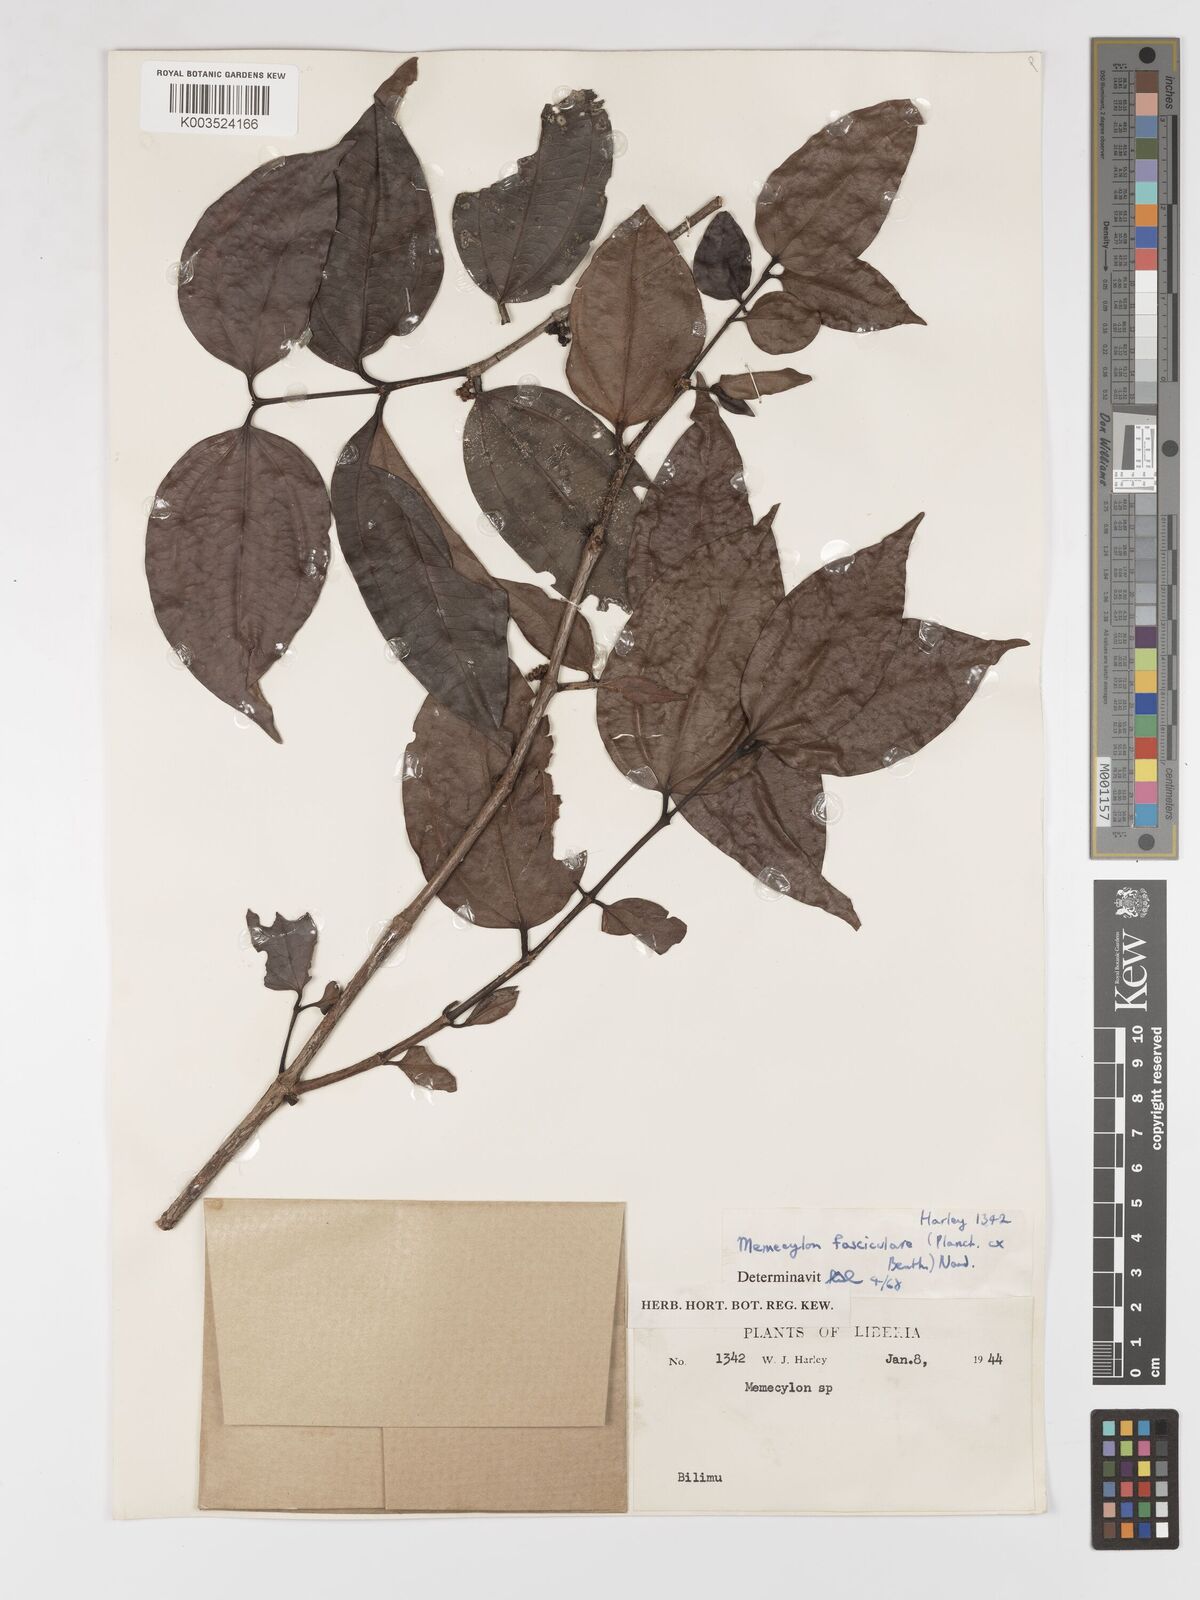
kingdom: Plantae
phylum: Tracheophyta
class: Magnoliopsida
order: Myrtales
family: Melastomataceae
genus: Warneckea
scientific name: Warneckea fascicularis
